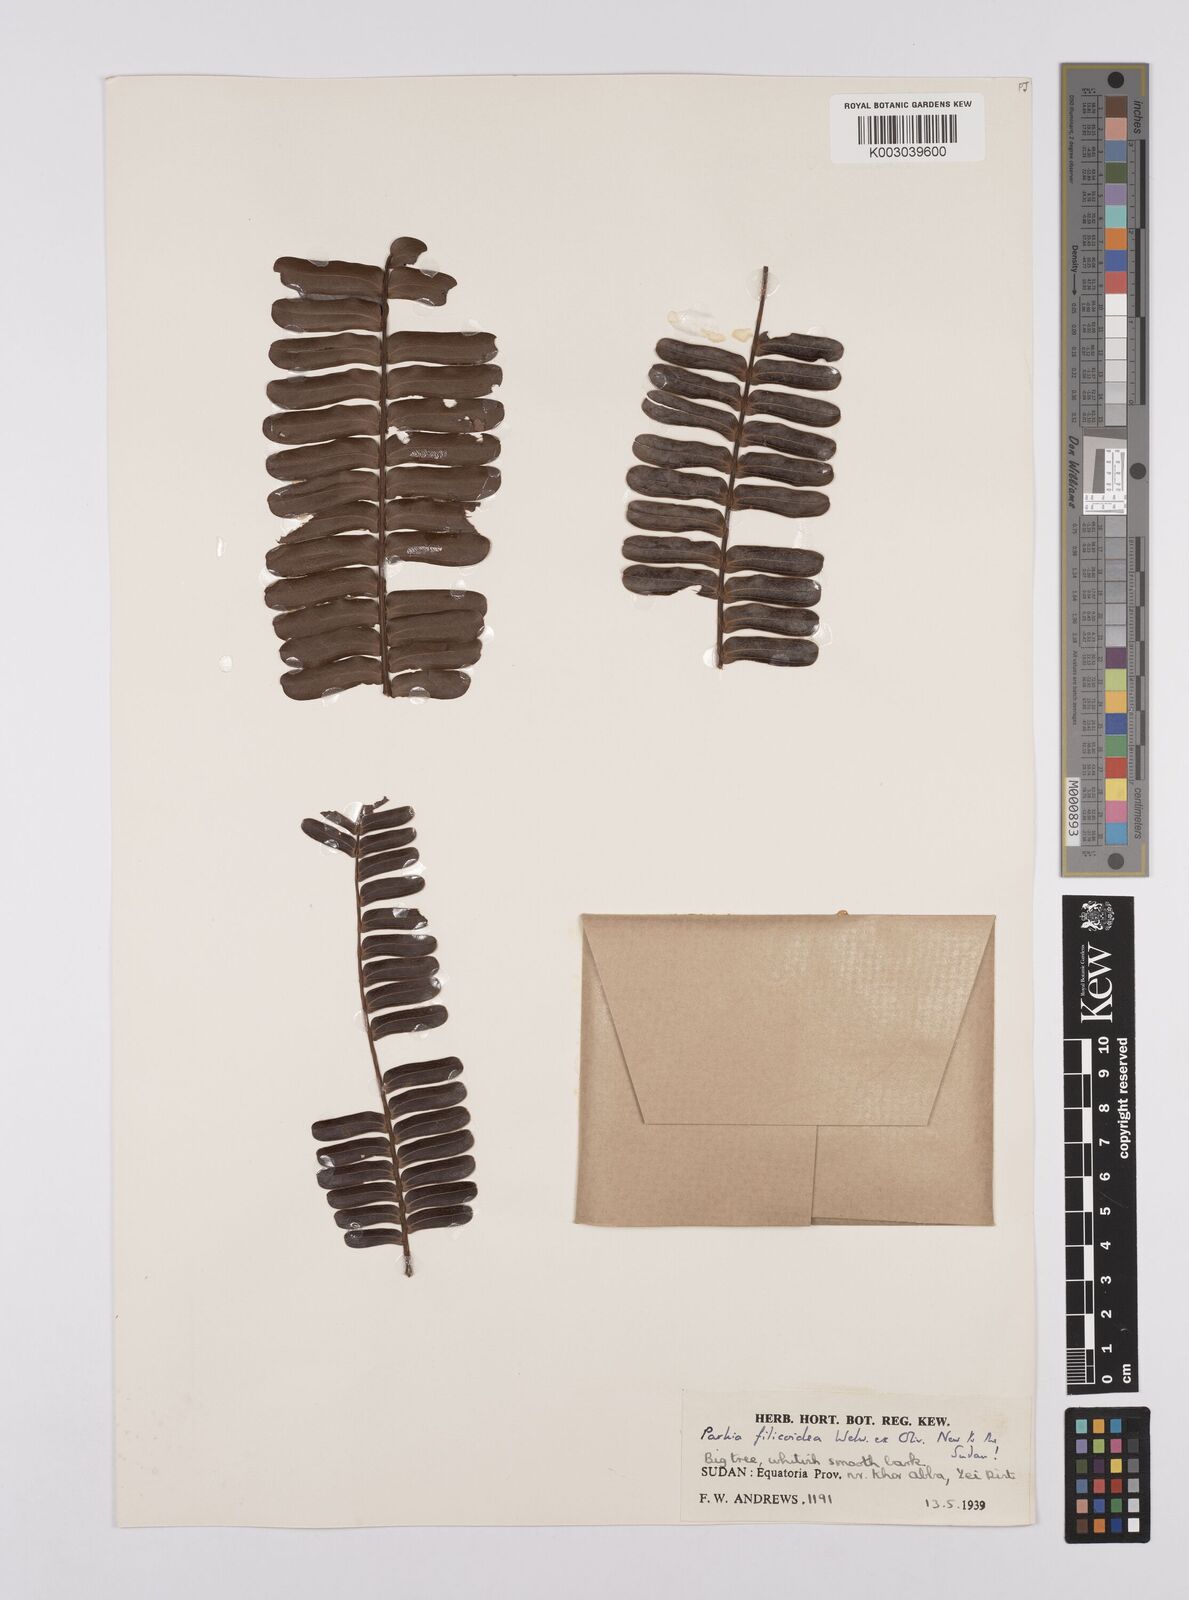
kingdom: Plantae
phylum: Tracheophyta
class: Magnoliopsida
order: Fabales
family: Fabaceae
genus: Parkia
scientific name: Parkia filicoidea
